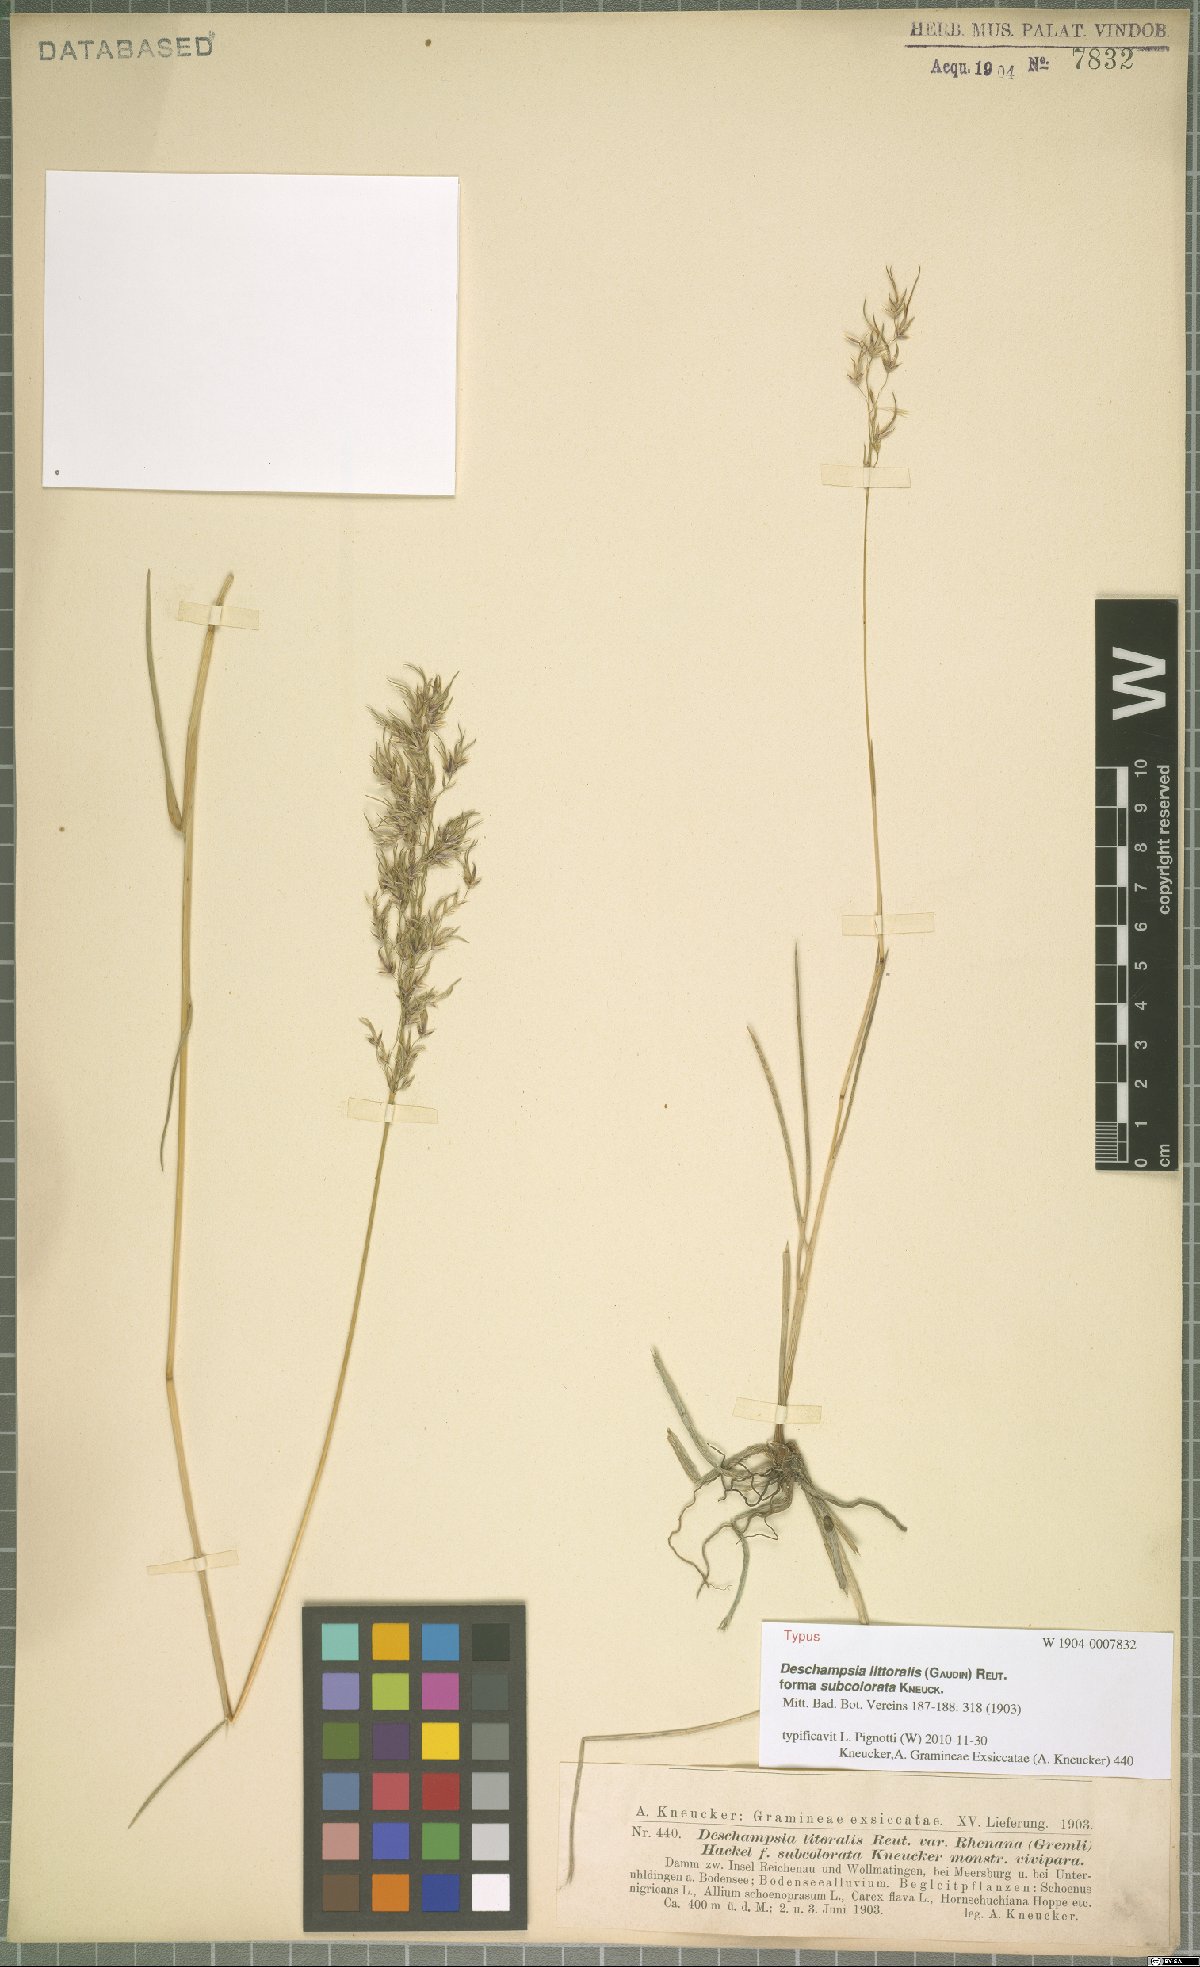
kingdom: Plantae
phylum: Tracheophyta
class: Liliopsida
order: Poales
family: Poaceae
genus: Deschampsia
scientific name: Deschampsia cespitosa
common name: Tufted hair-grass
